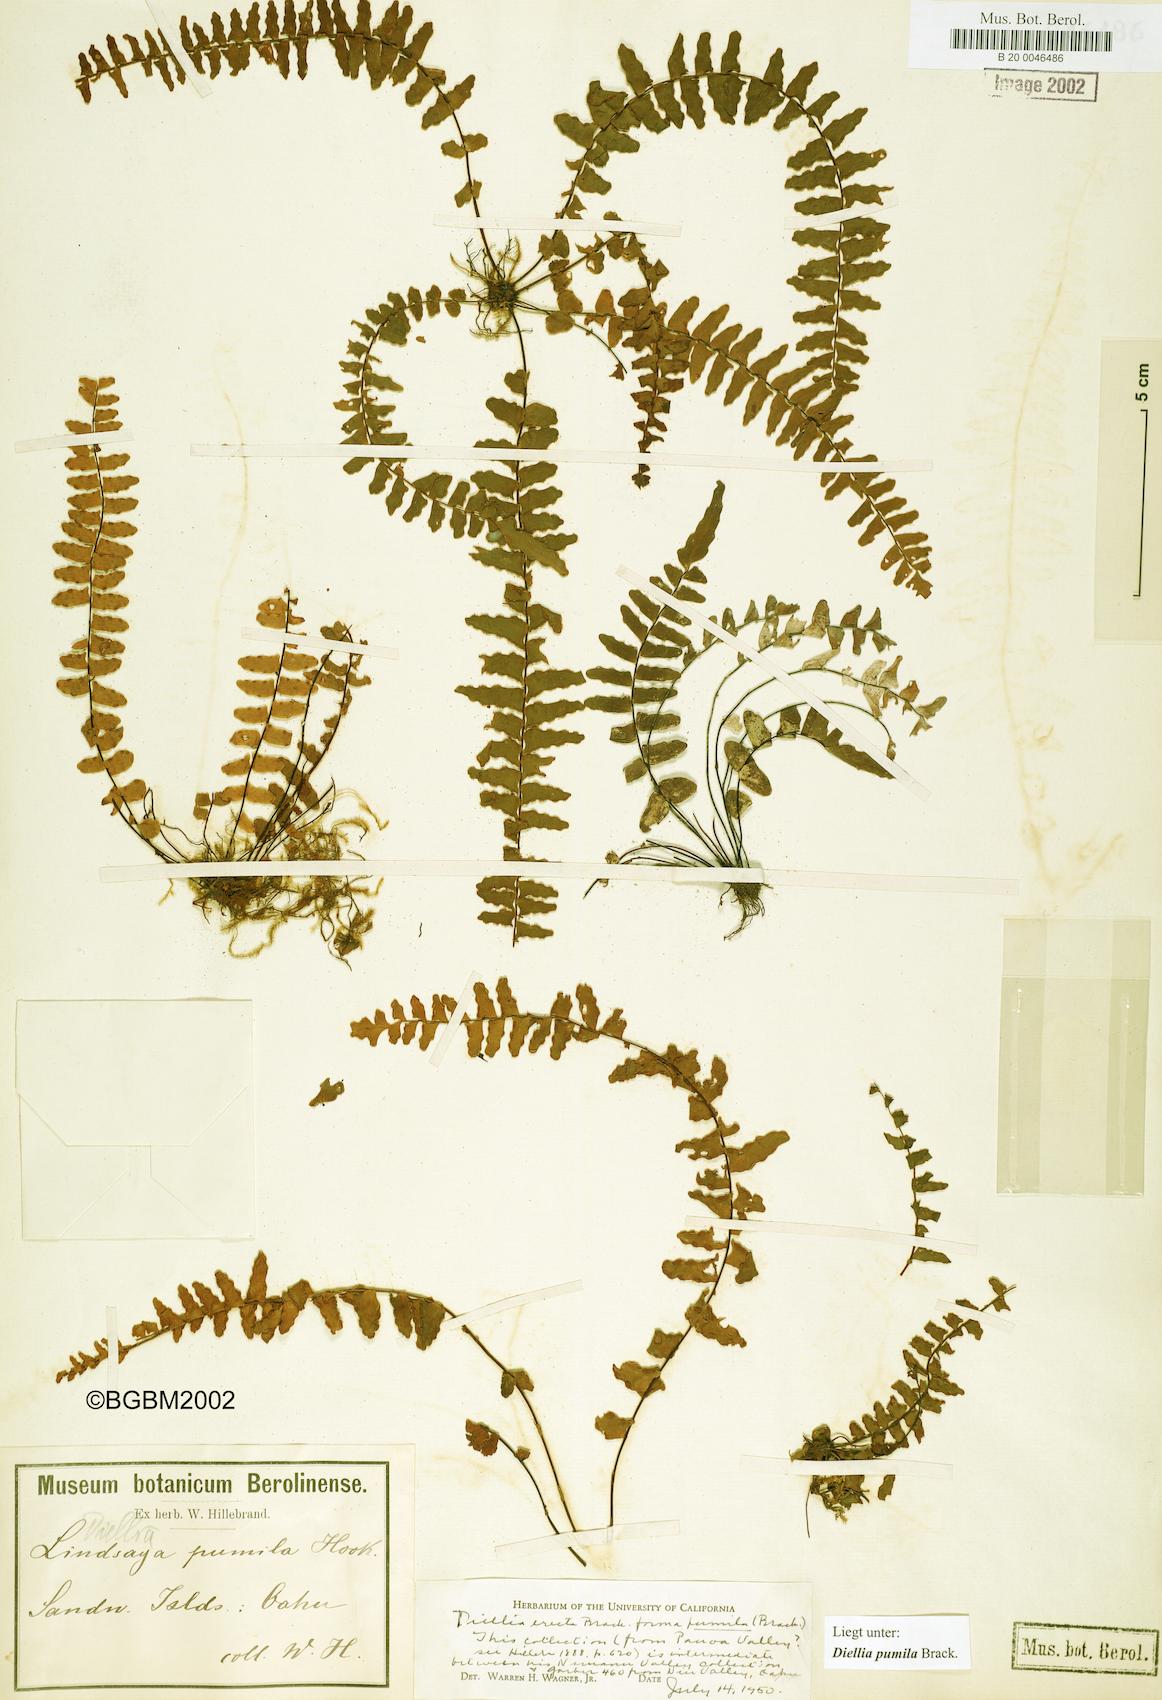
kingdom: Plantae
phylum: Tracheophyta
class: Polypodiopsida
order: Polypodiales
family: Aspleniaceae
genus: Asplenium
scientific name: Asplenium dielerectum
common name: Erect island spleenwort
